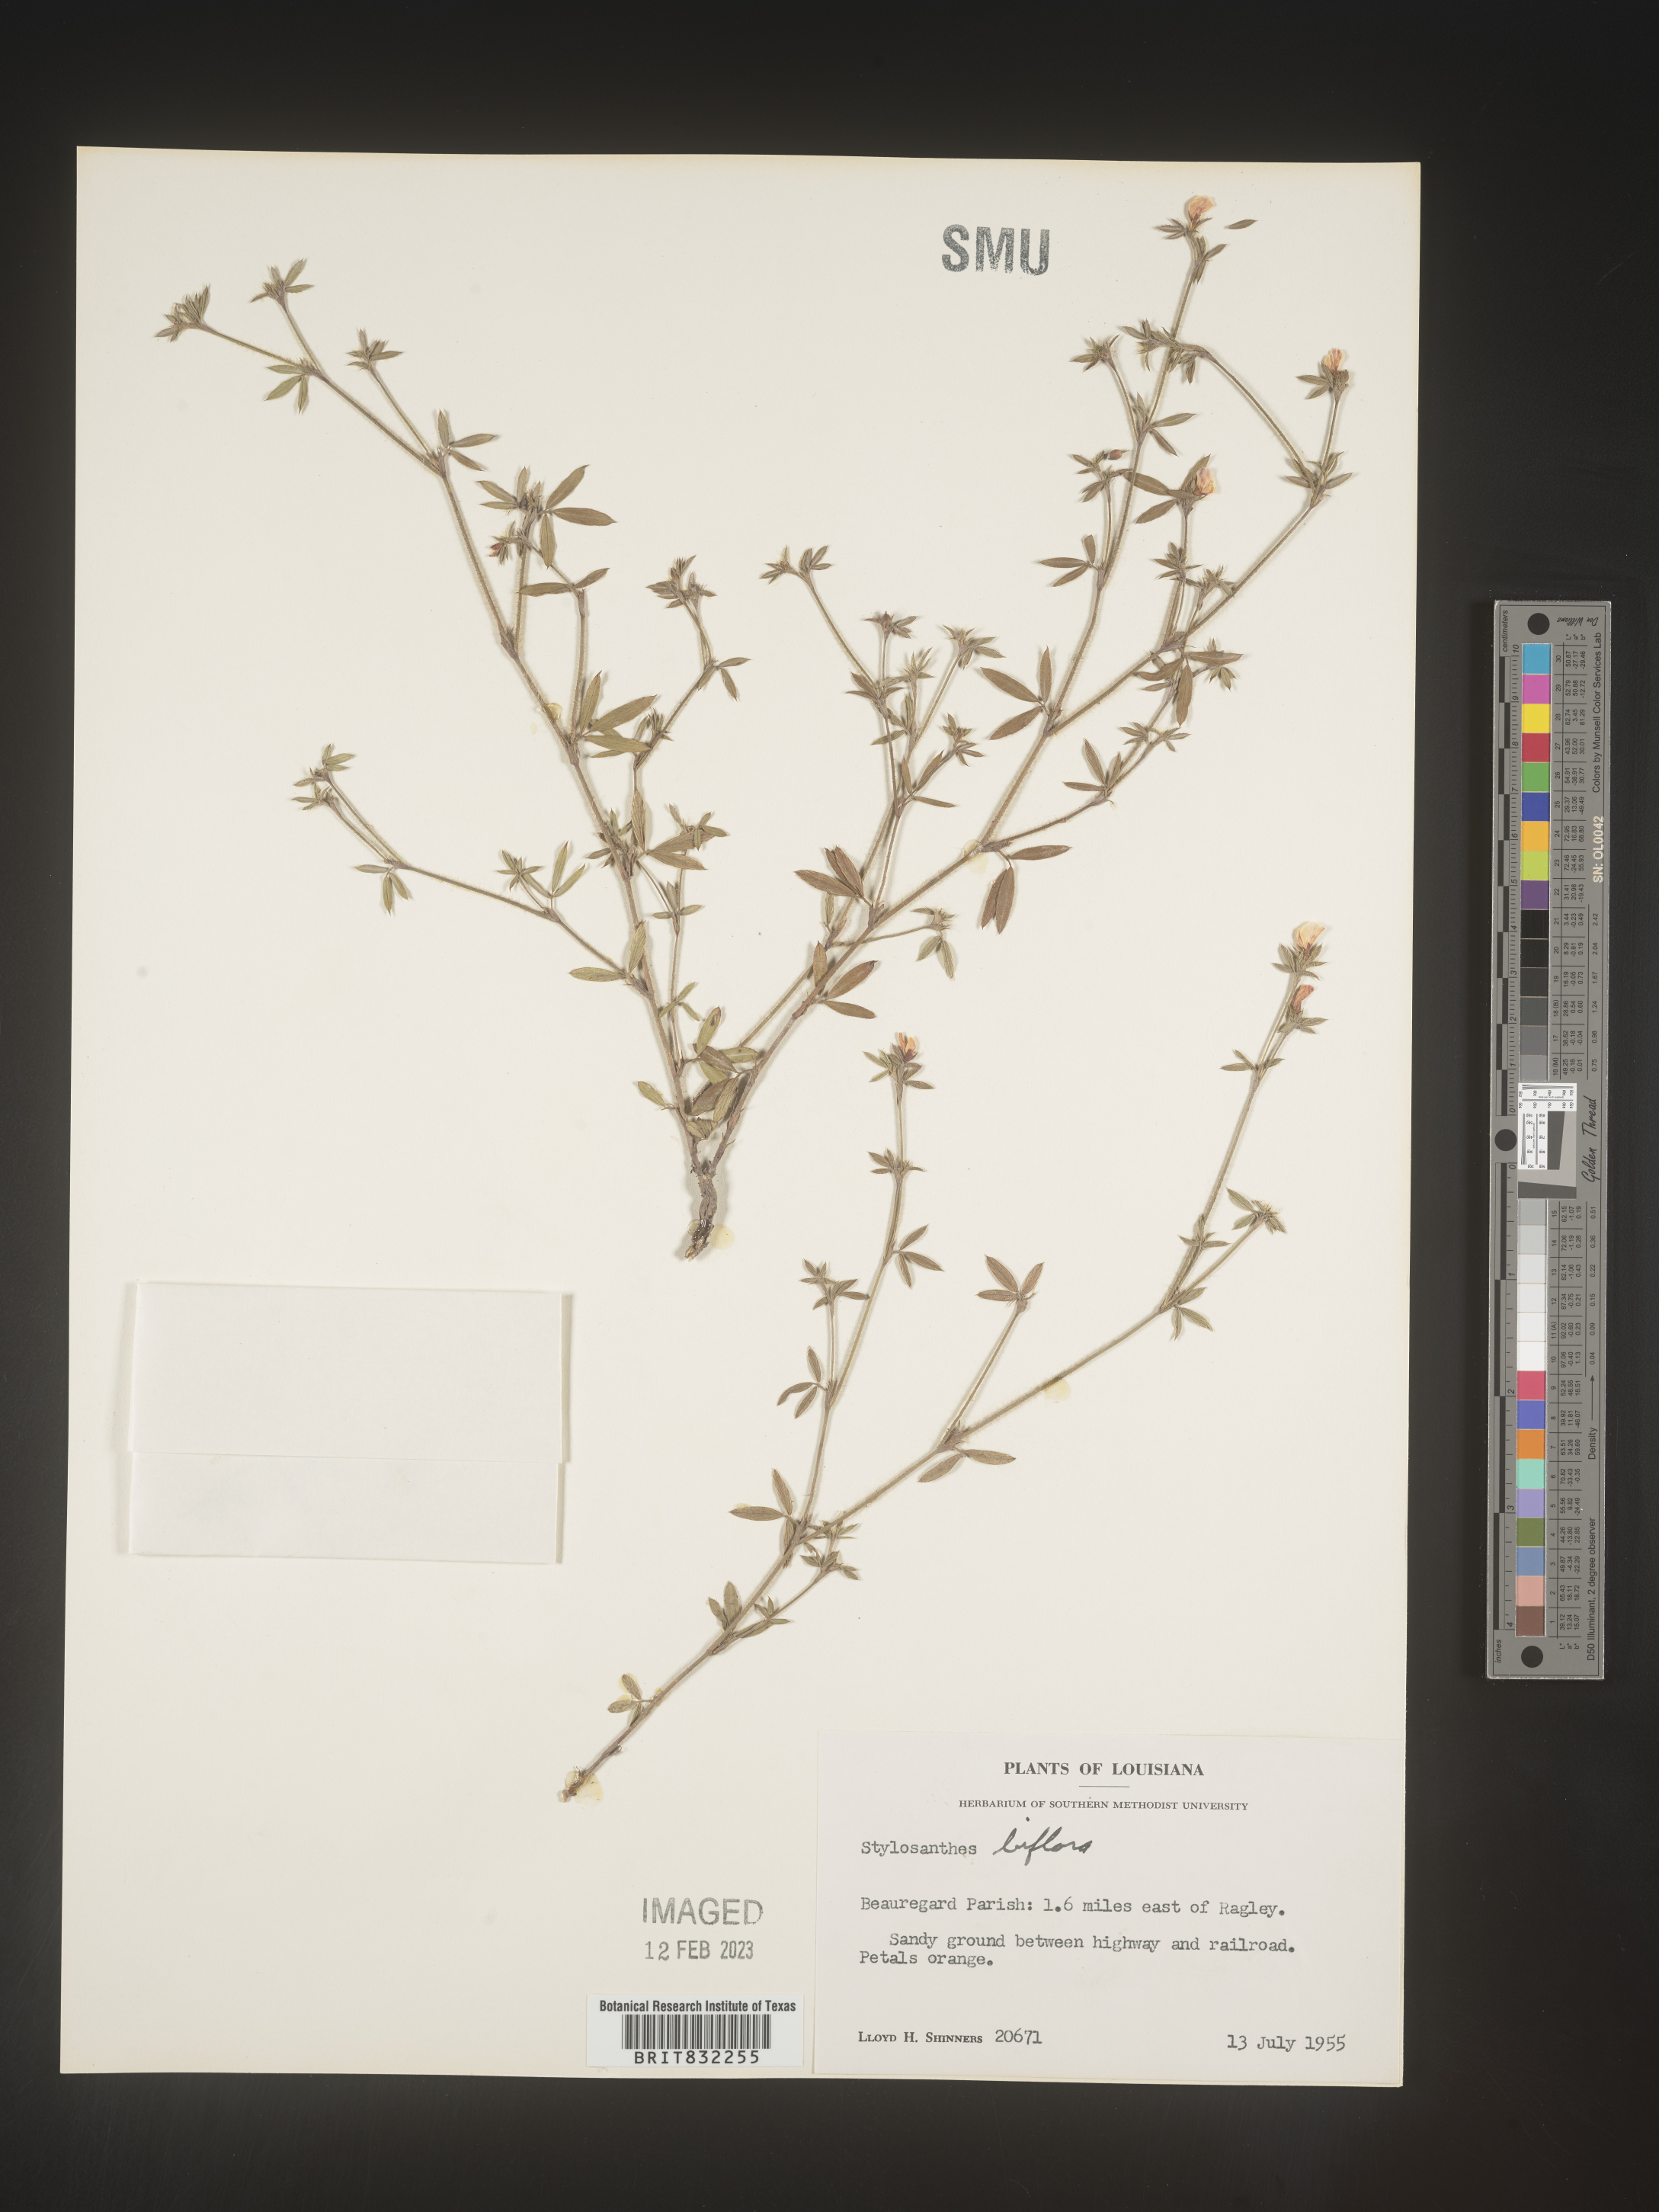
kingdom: Plantae
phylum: Tracheophyta
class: Magnoliopsida
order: Fabales
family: Fabaceae
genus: Stylosanthes
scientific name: Stylosanthes biflora
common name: Two-flower pencil-flower
